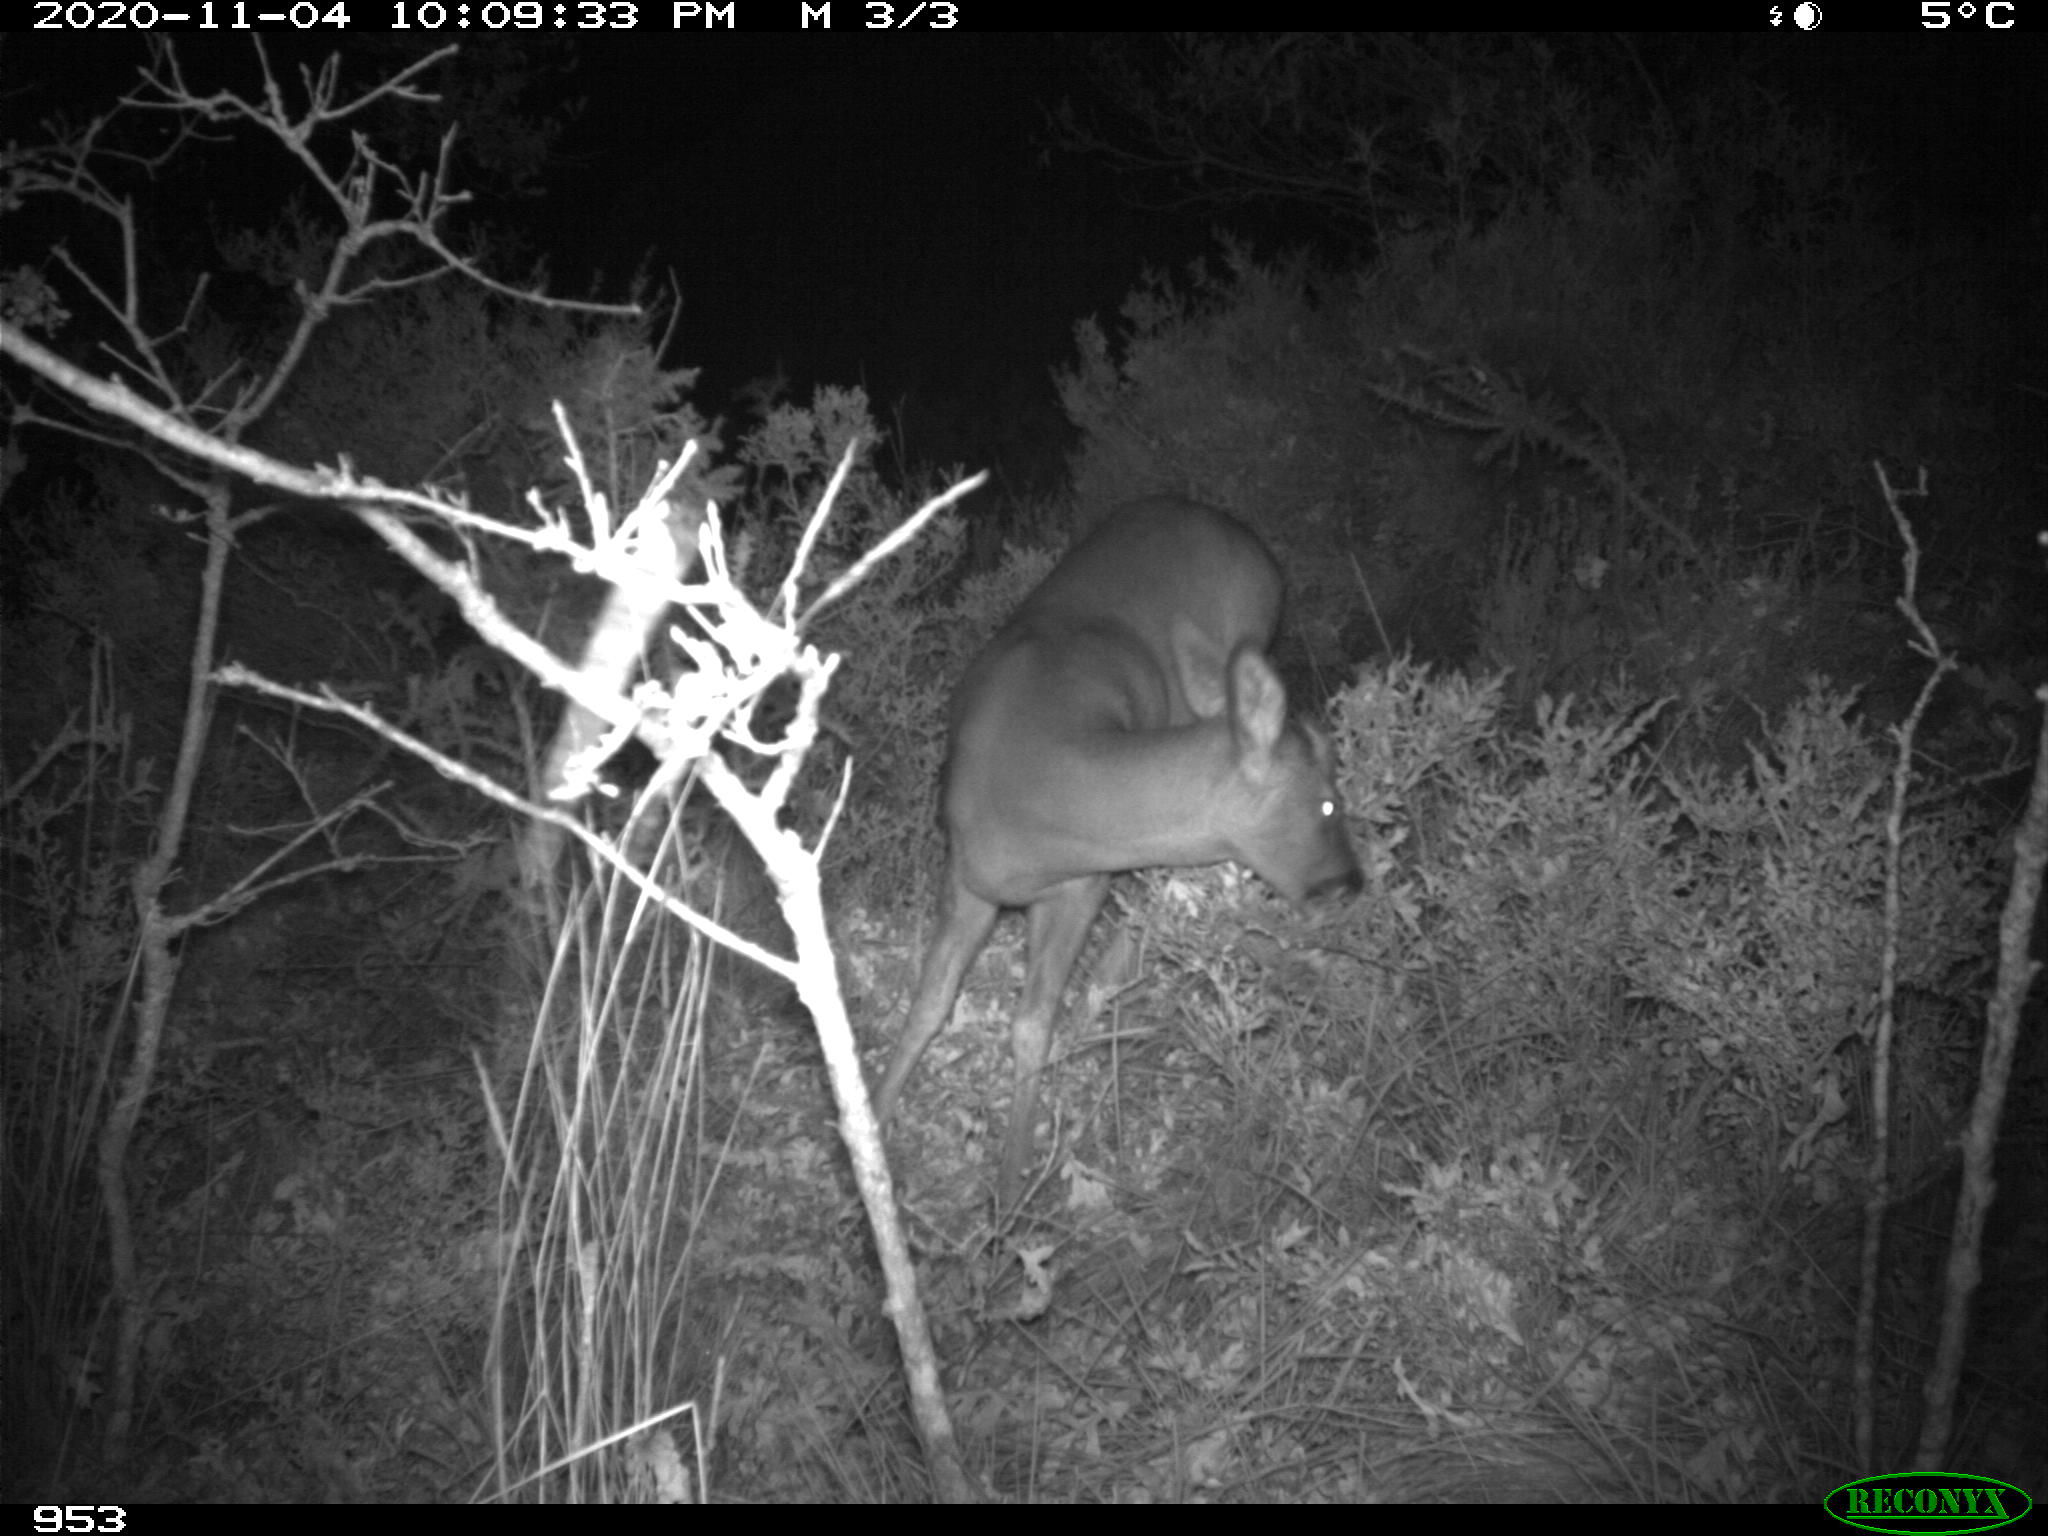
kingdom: Animalia
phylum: Chordata
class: Mammalia
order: Artiodactyla
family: Cervidae
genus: Capreolus
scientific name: Capreolus capreolus
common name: Western roe deer
